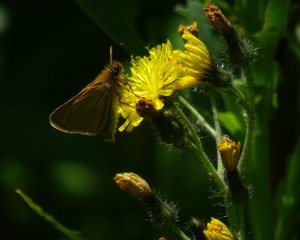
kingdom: Animalia
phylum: Arthropoda
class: Insecta
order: Lepidoptera
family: Hesperiidae
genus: Thymelicus
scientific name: Thymelicus lineola
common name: European Skipper
